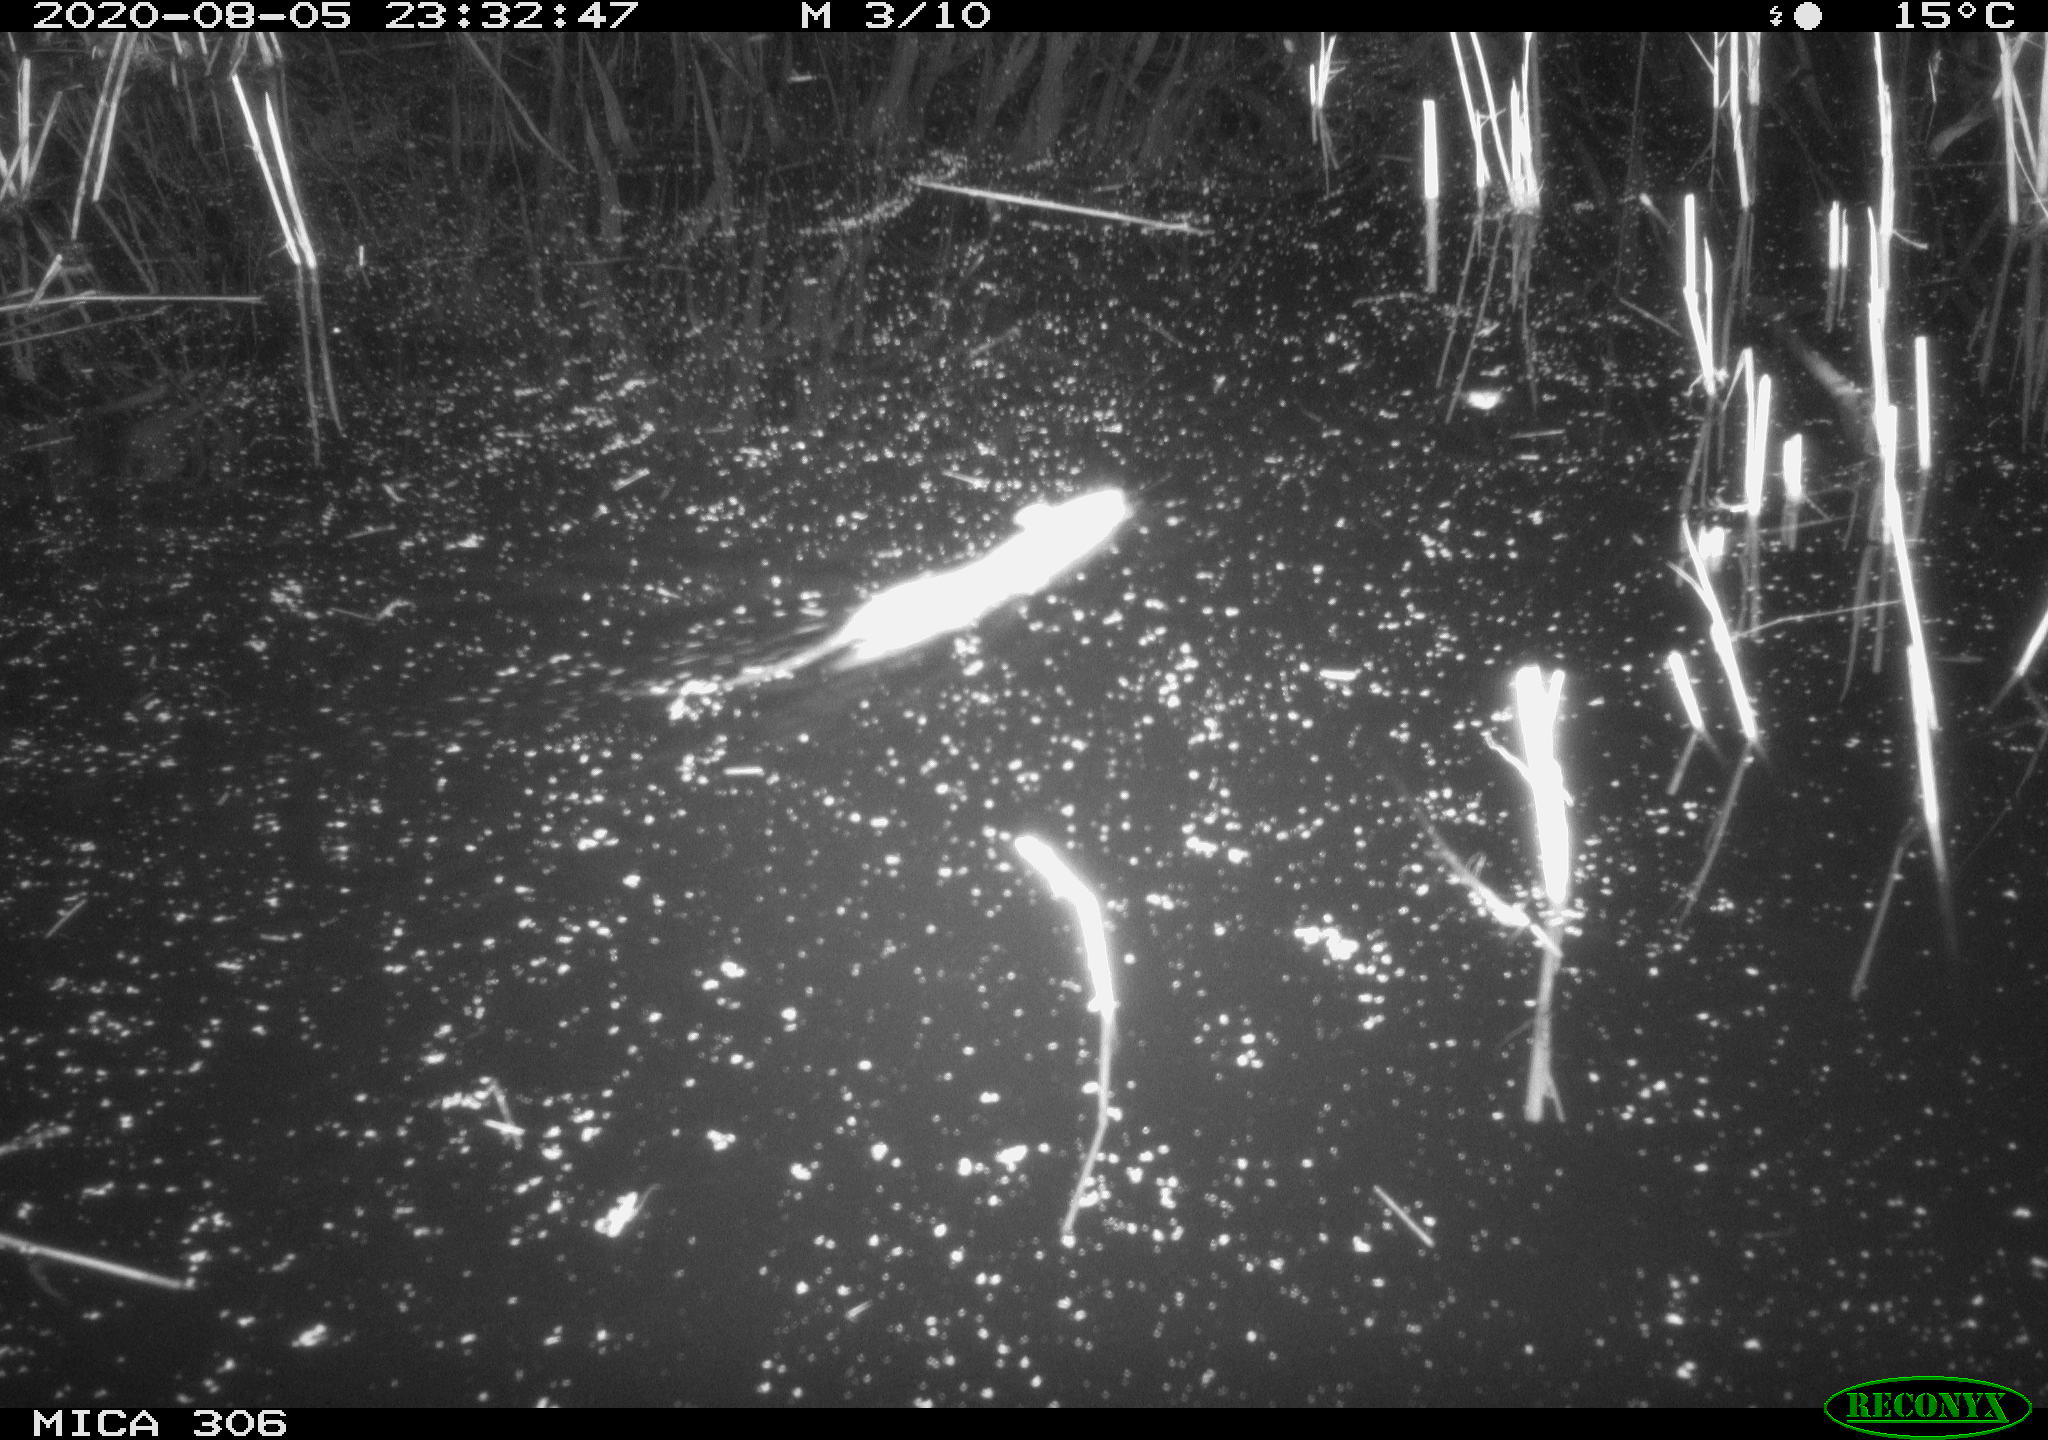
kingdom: Animalia
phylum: Chordata
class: Mammalia
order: Rodentia
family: Muridae
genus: Rattus
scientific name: Rattus norvegicus
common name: Brown rat
